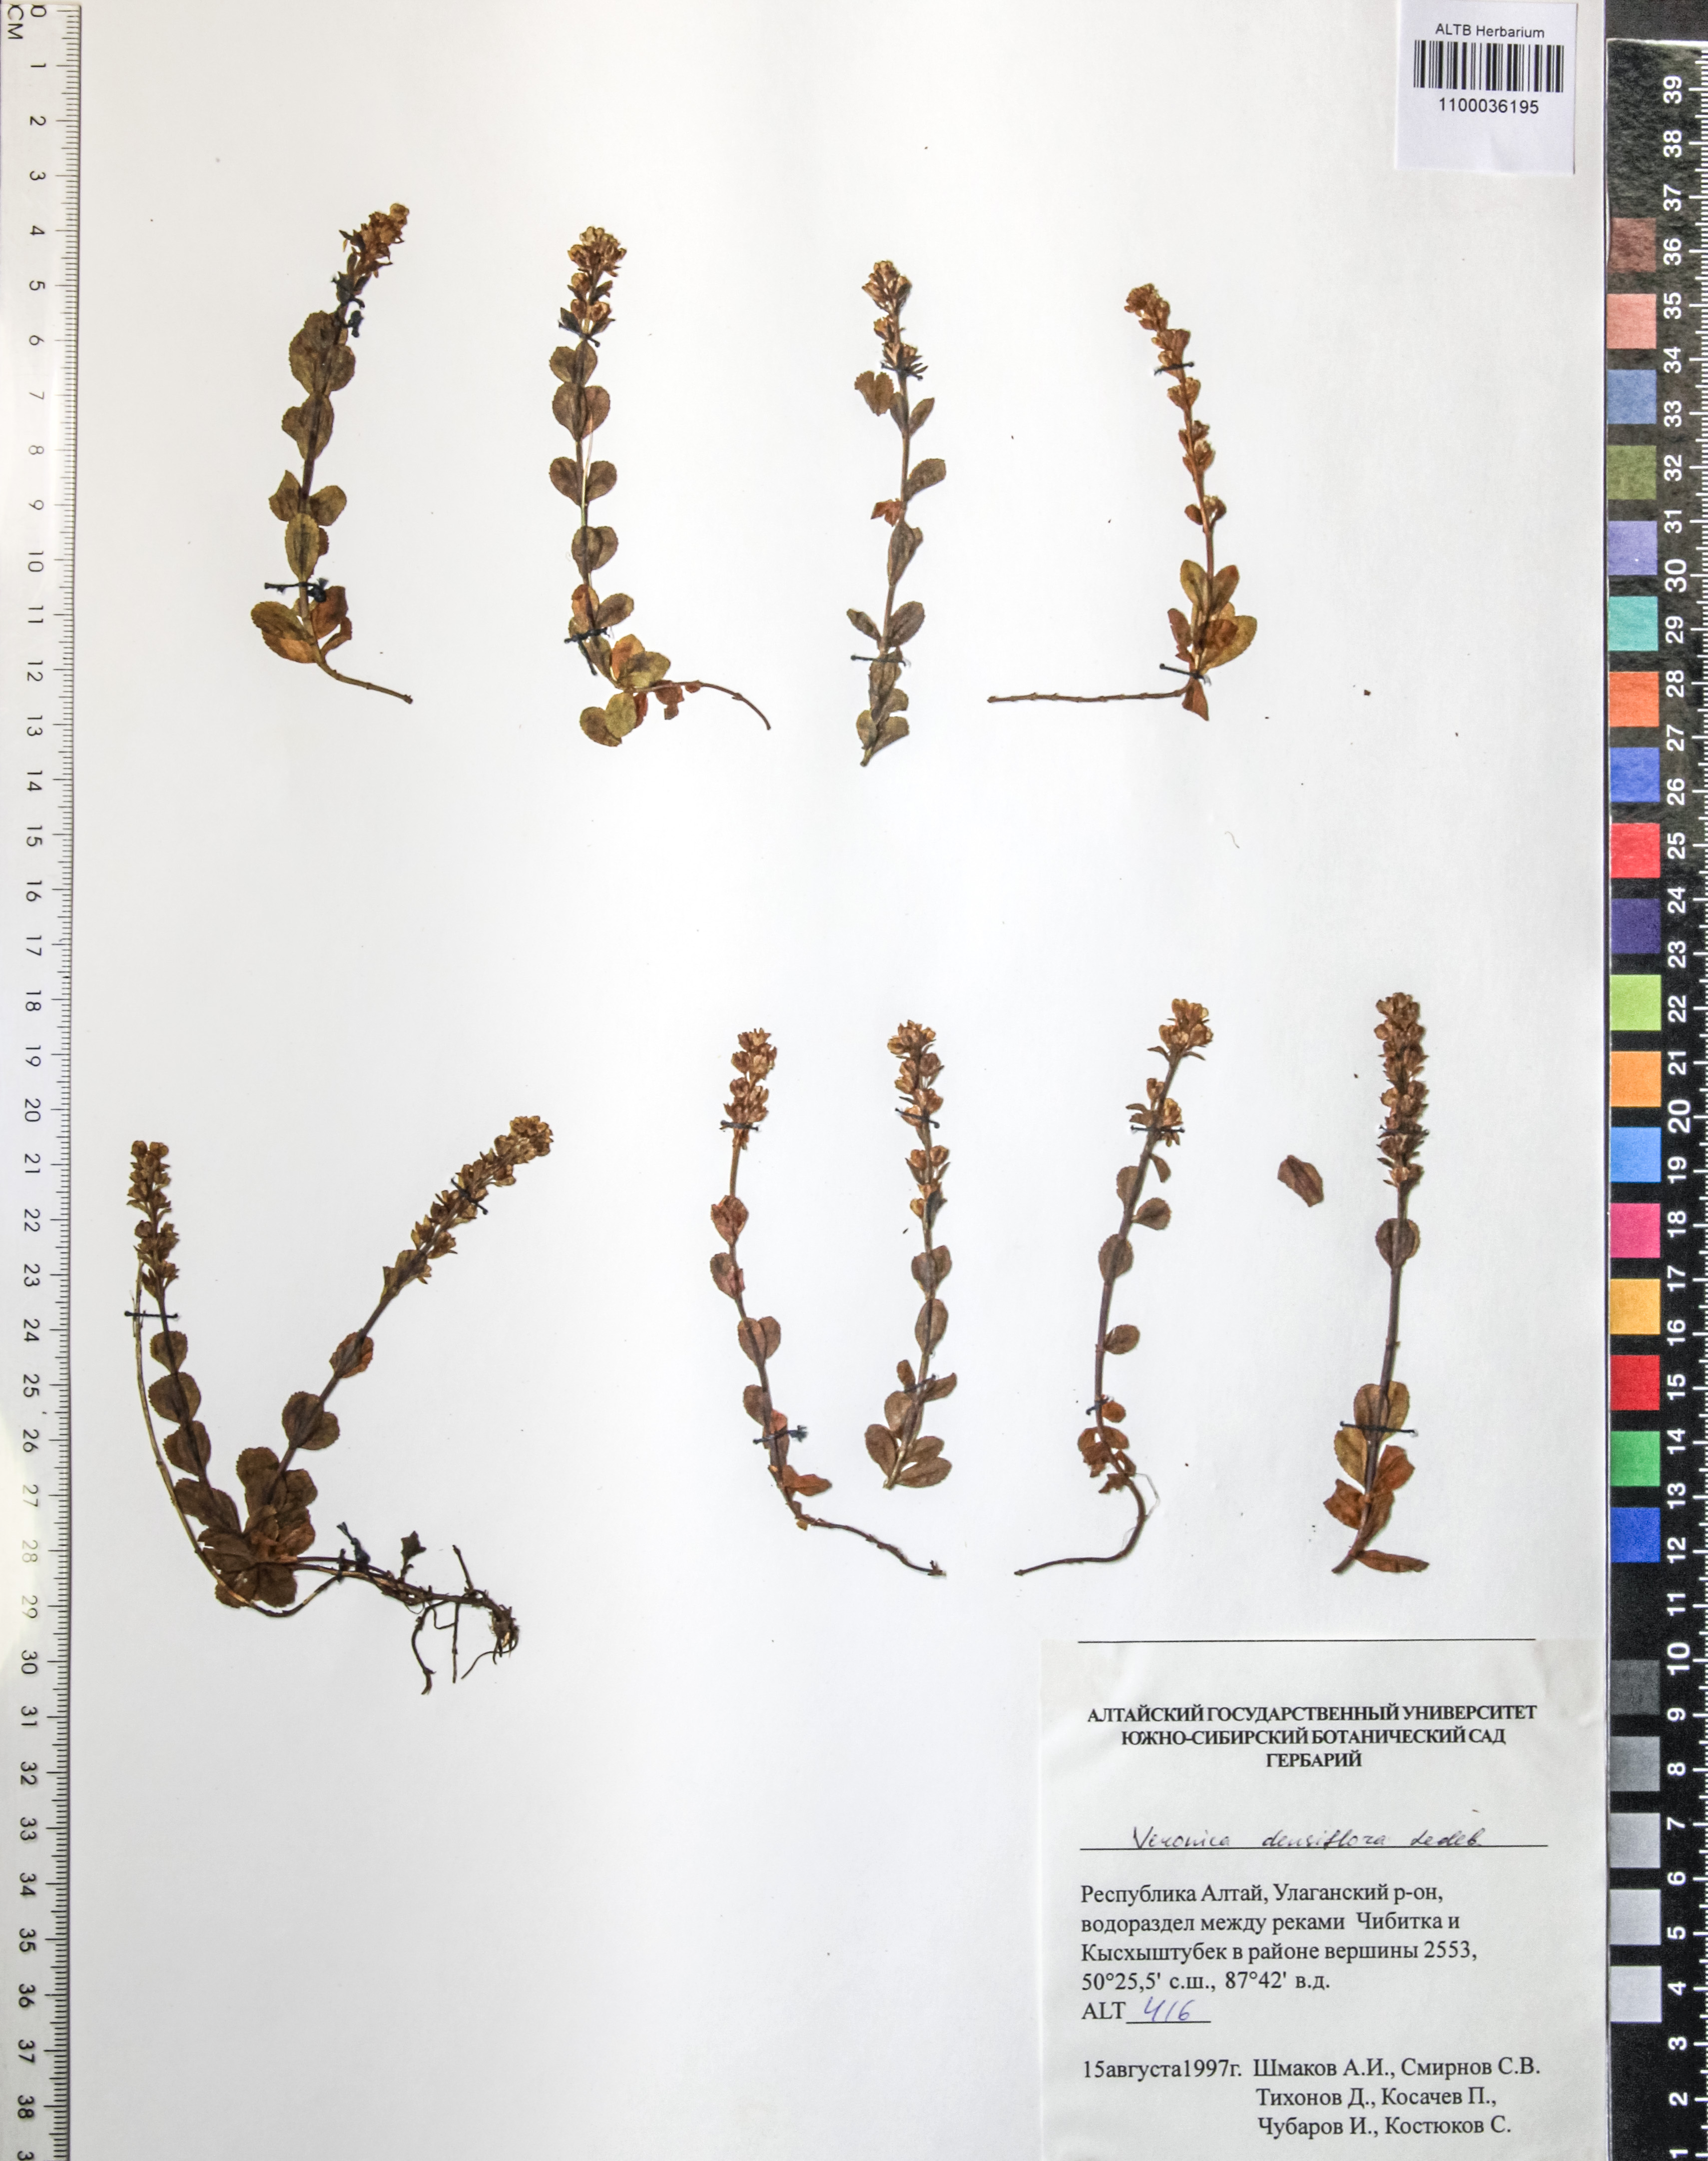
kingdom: Plantae
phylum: Tracheophyta
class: Magnoliopsida
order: Lamiales
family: Plantaginaceae
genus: Veronica
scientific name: Veronica densiflora
